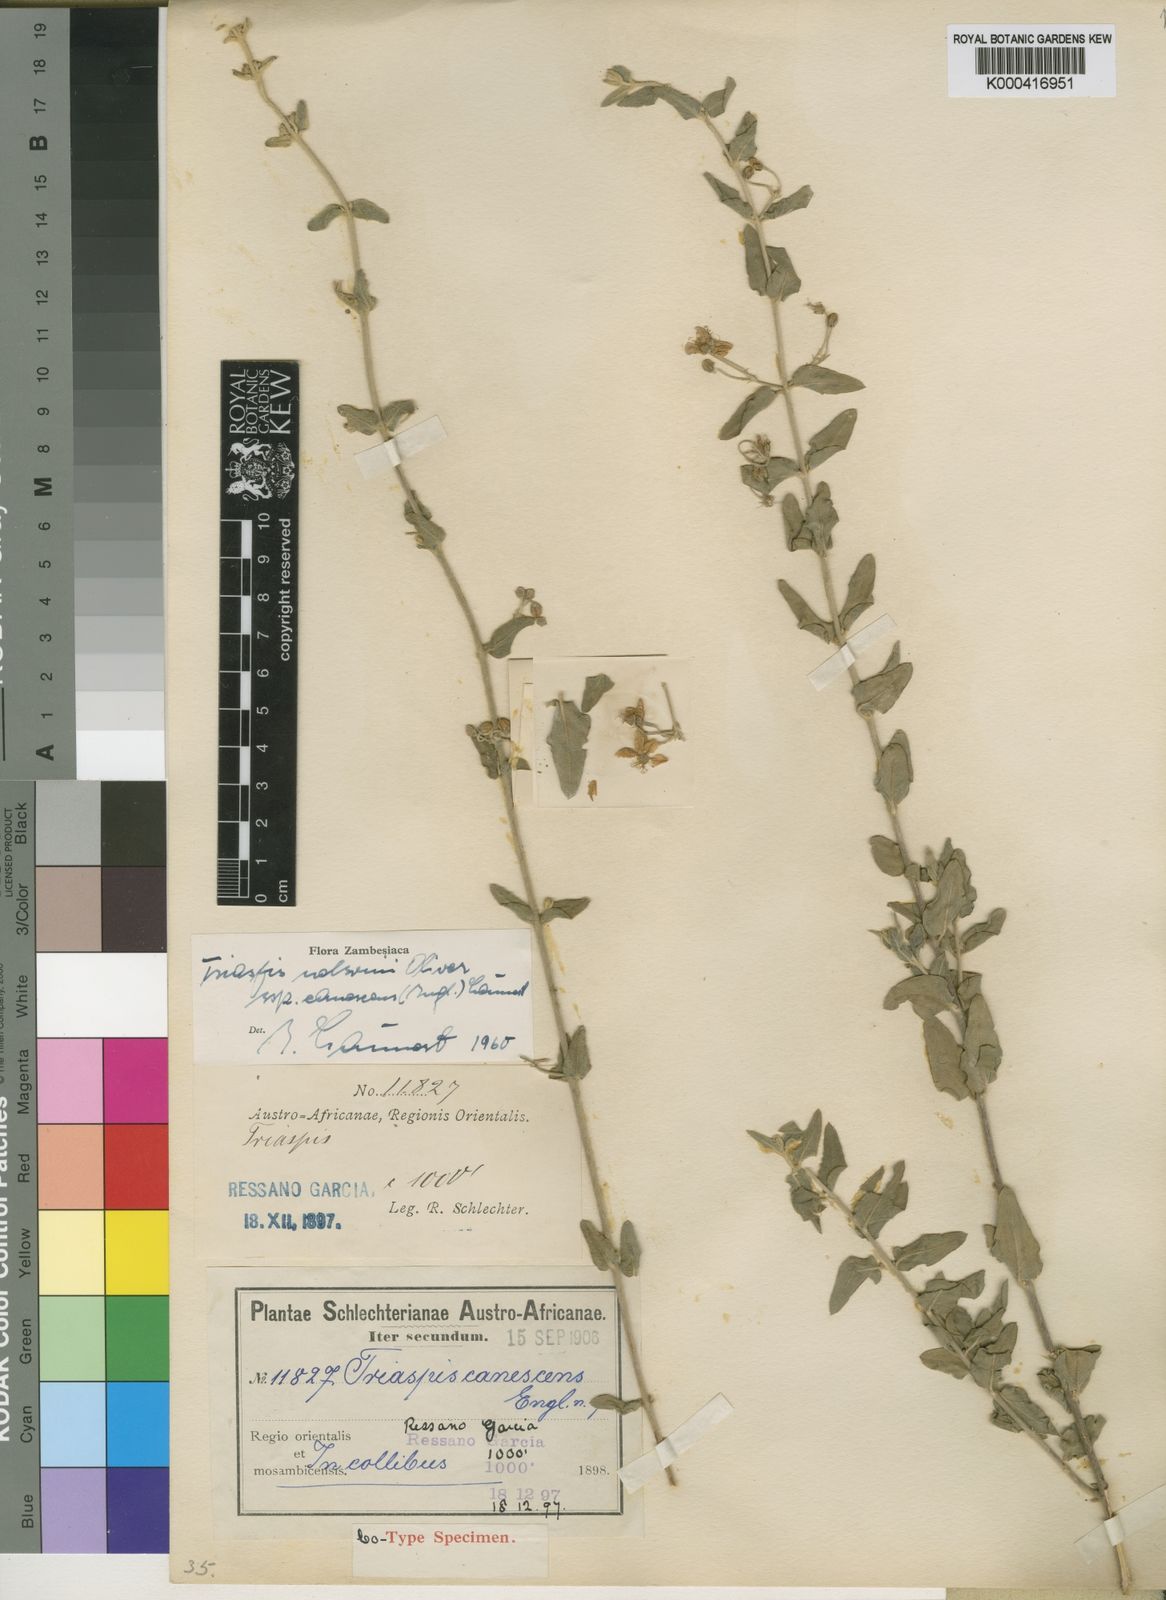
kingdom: Plantae
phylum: Tracheophyta
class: Magnoliopsida
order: Malpighiales
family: Malpighiaceae
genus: Triaspis
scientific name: Triaspis hypericoides
